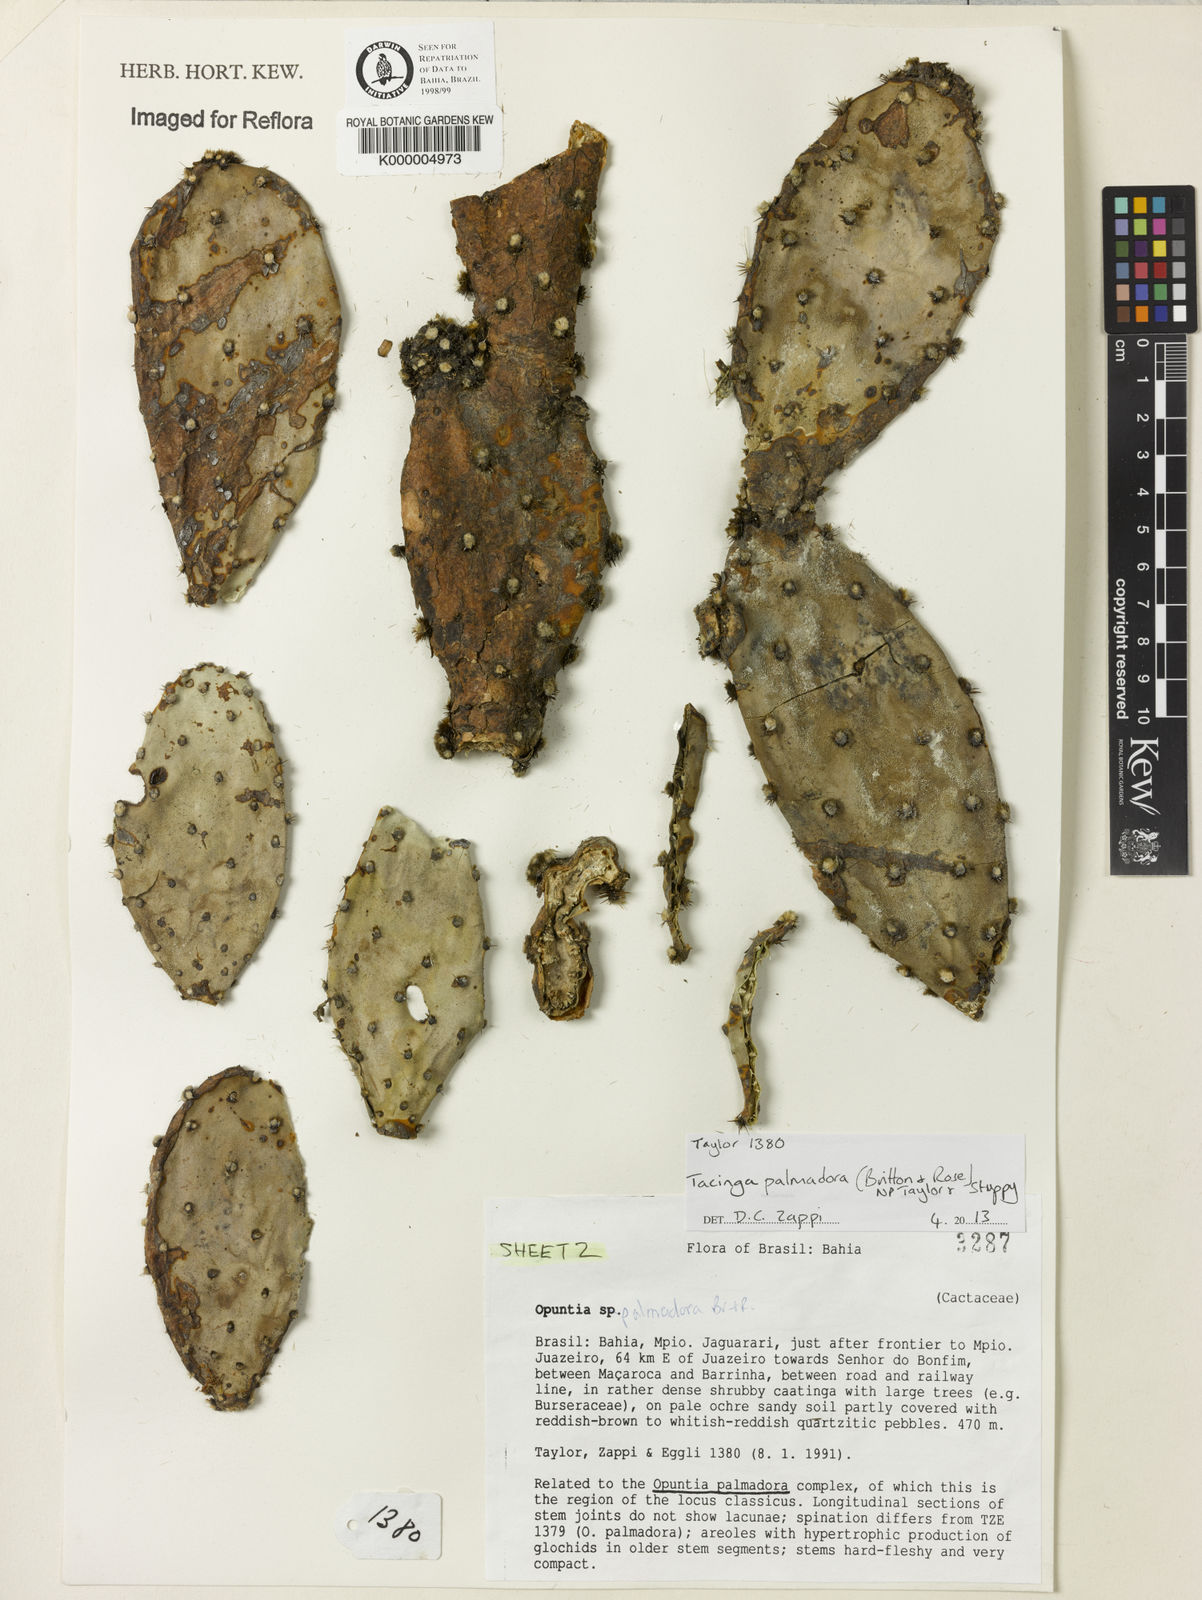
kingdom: Plantae
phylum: Tracheophyta
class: Magnoliopsida
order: Caryophyllales
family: Cactaceae
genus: Tacinga
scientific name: Tacinga palmadora
